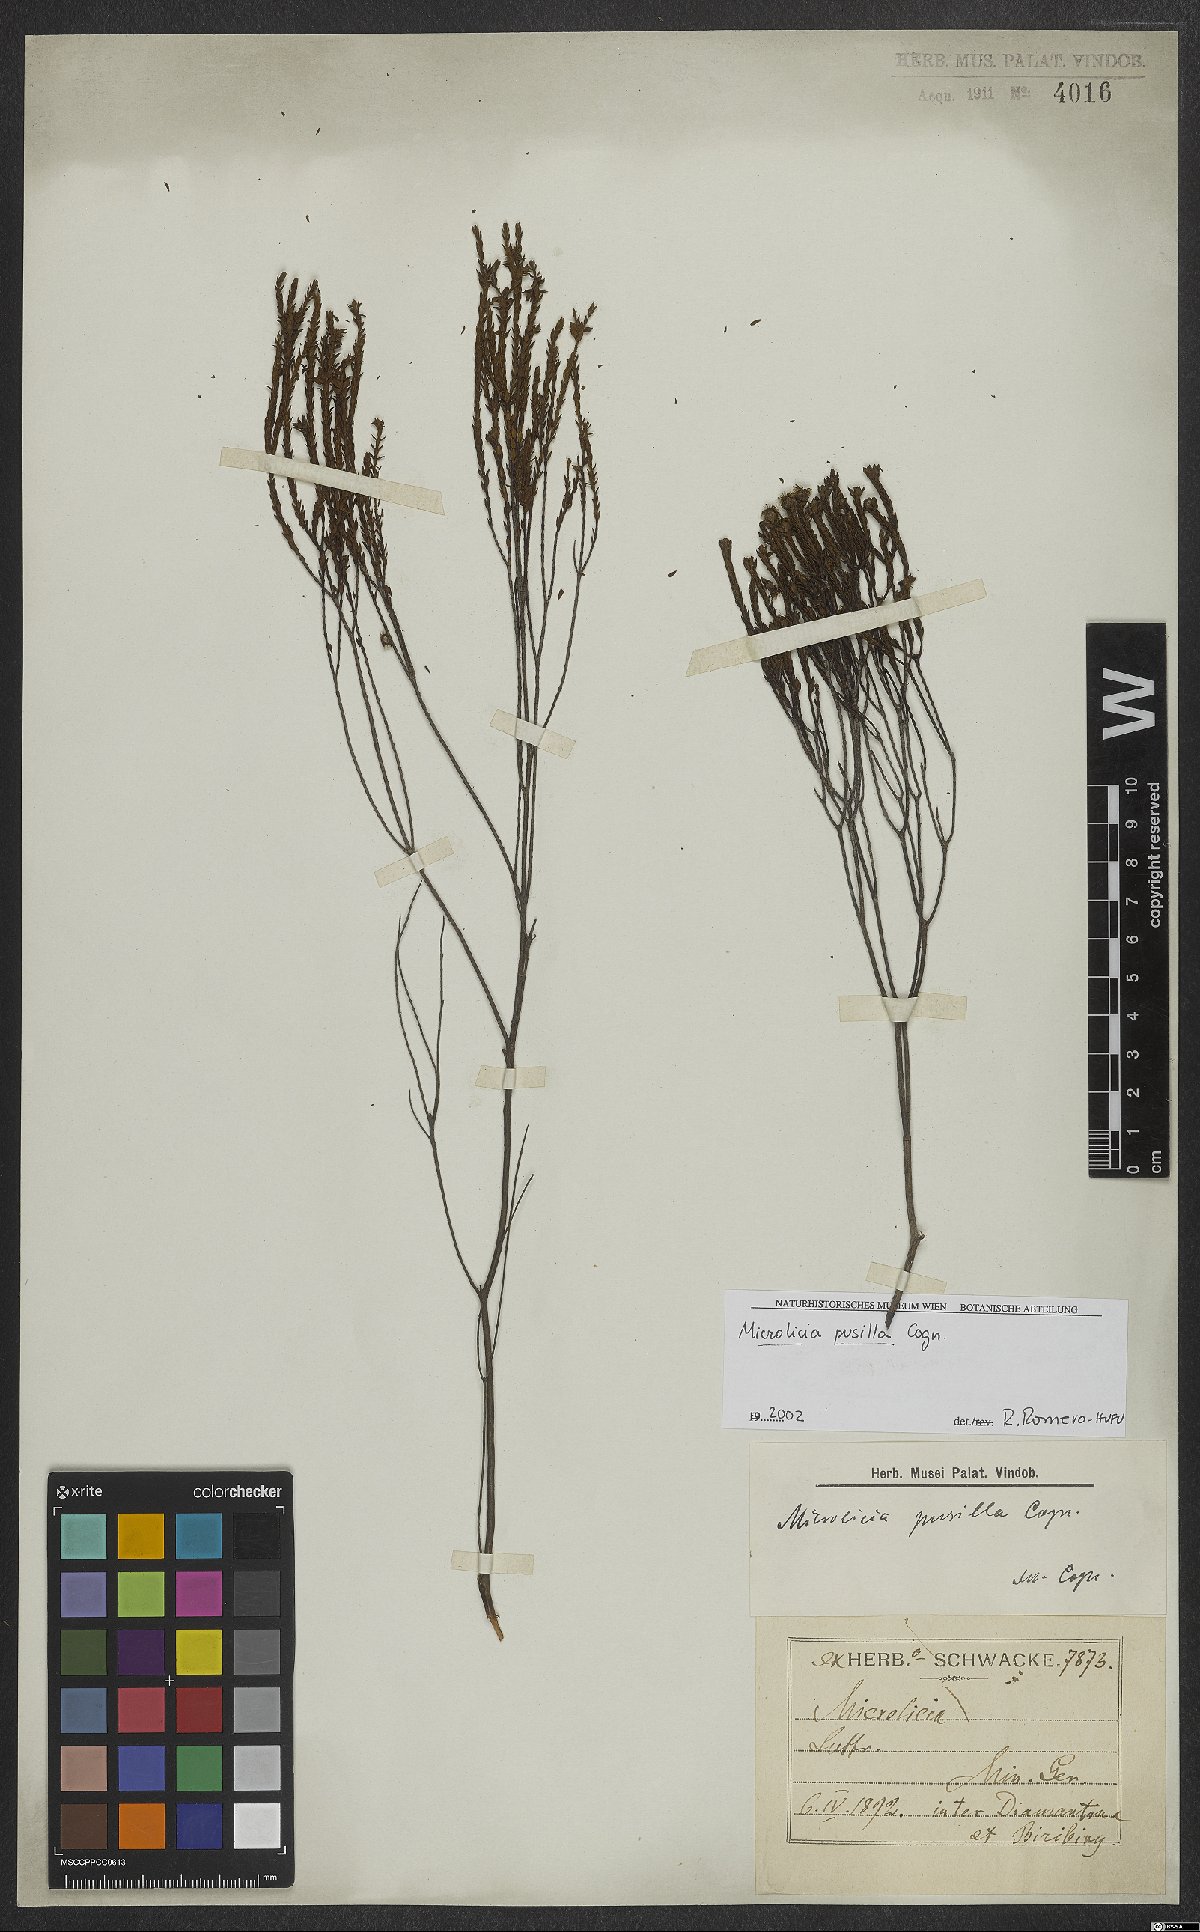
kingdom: Plantae
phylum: Tracheophyta
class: Magnoliopsida
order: Myrtales
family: Melastomataceae
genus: Microlicia
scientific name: Microlicia pusilla
